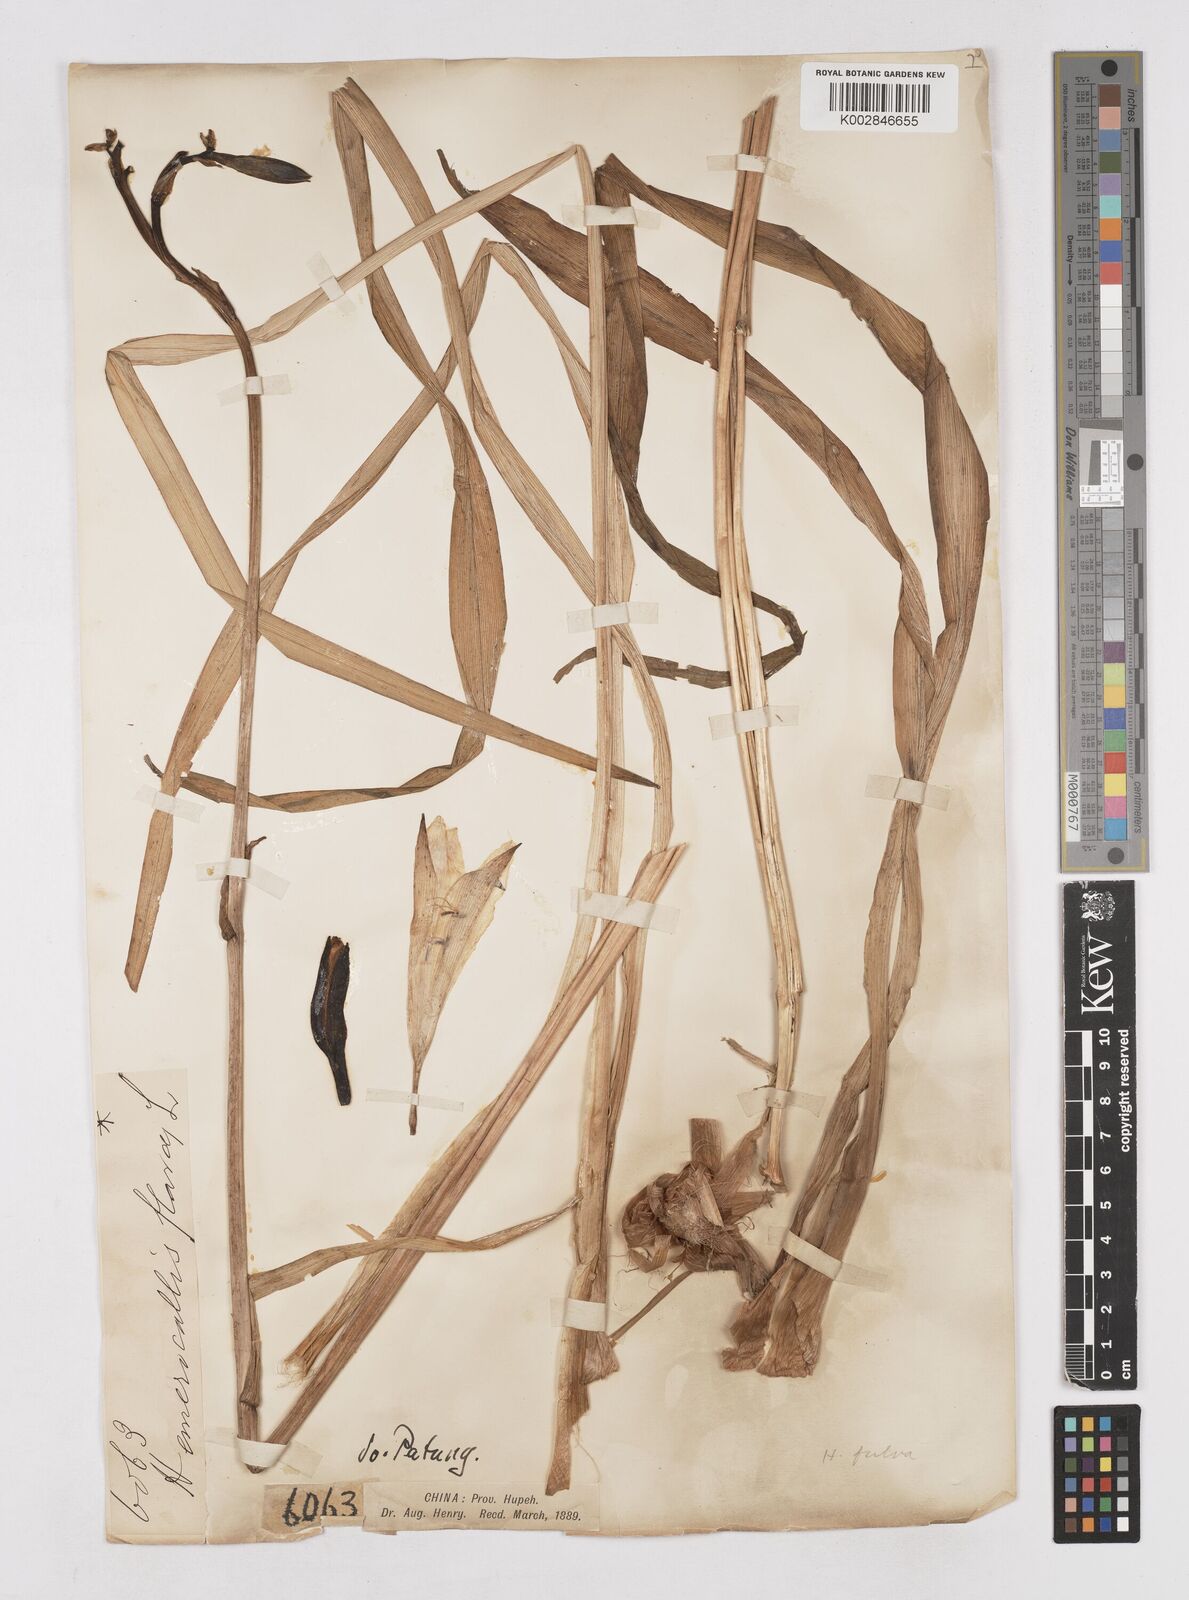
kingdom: Plantae
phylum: Tracheophyta
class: Liliopsida
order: Asparagales
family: Asphodelaceae
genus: Hemerocallis
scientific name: Hemerocallis fulva
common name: Orange day-lily
